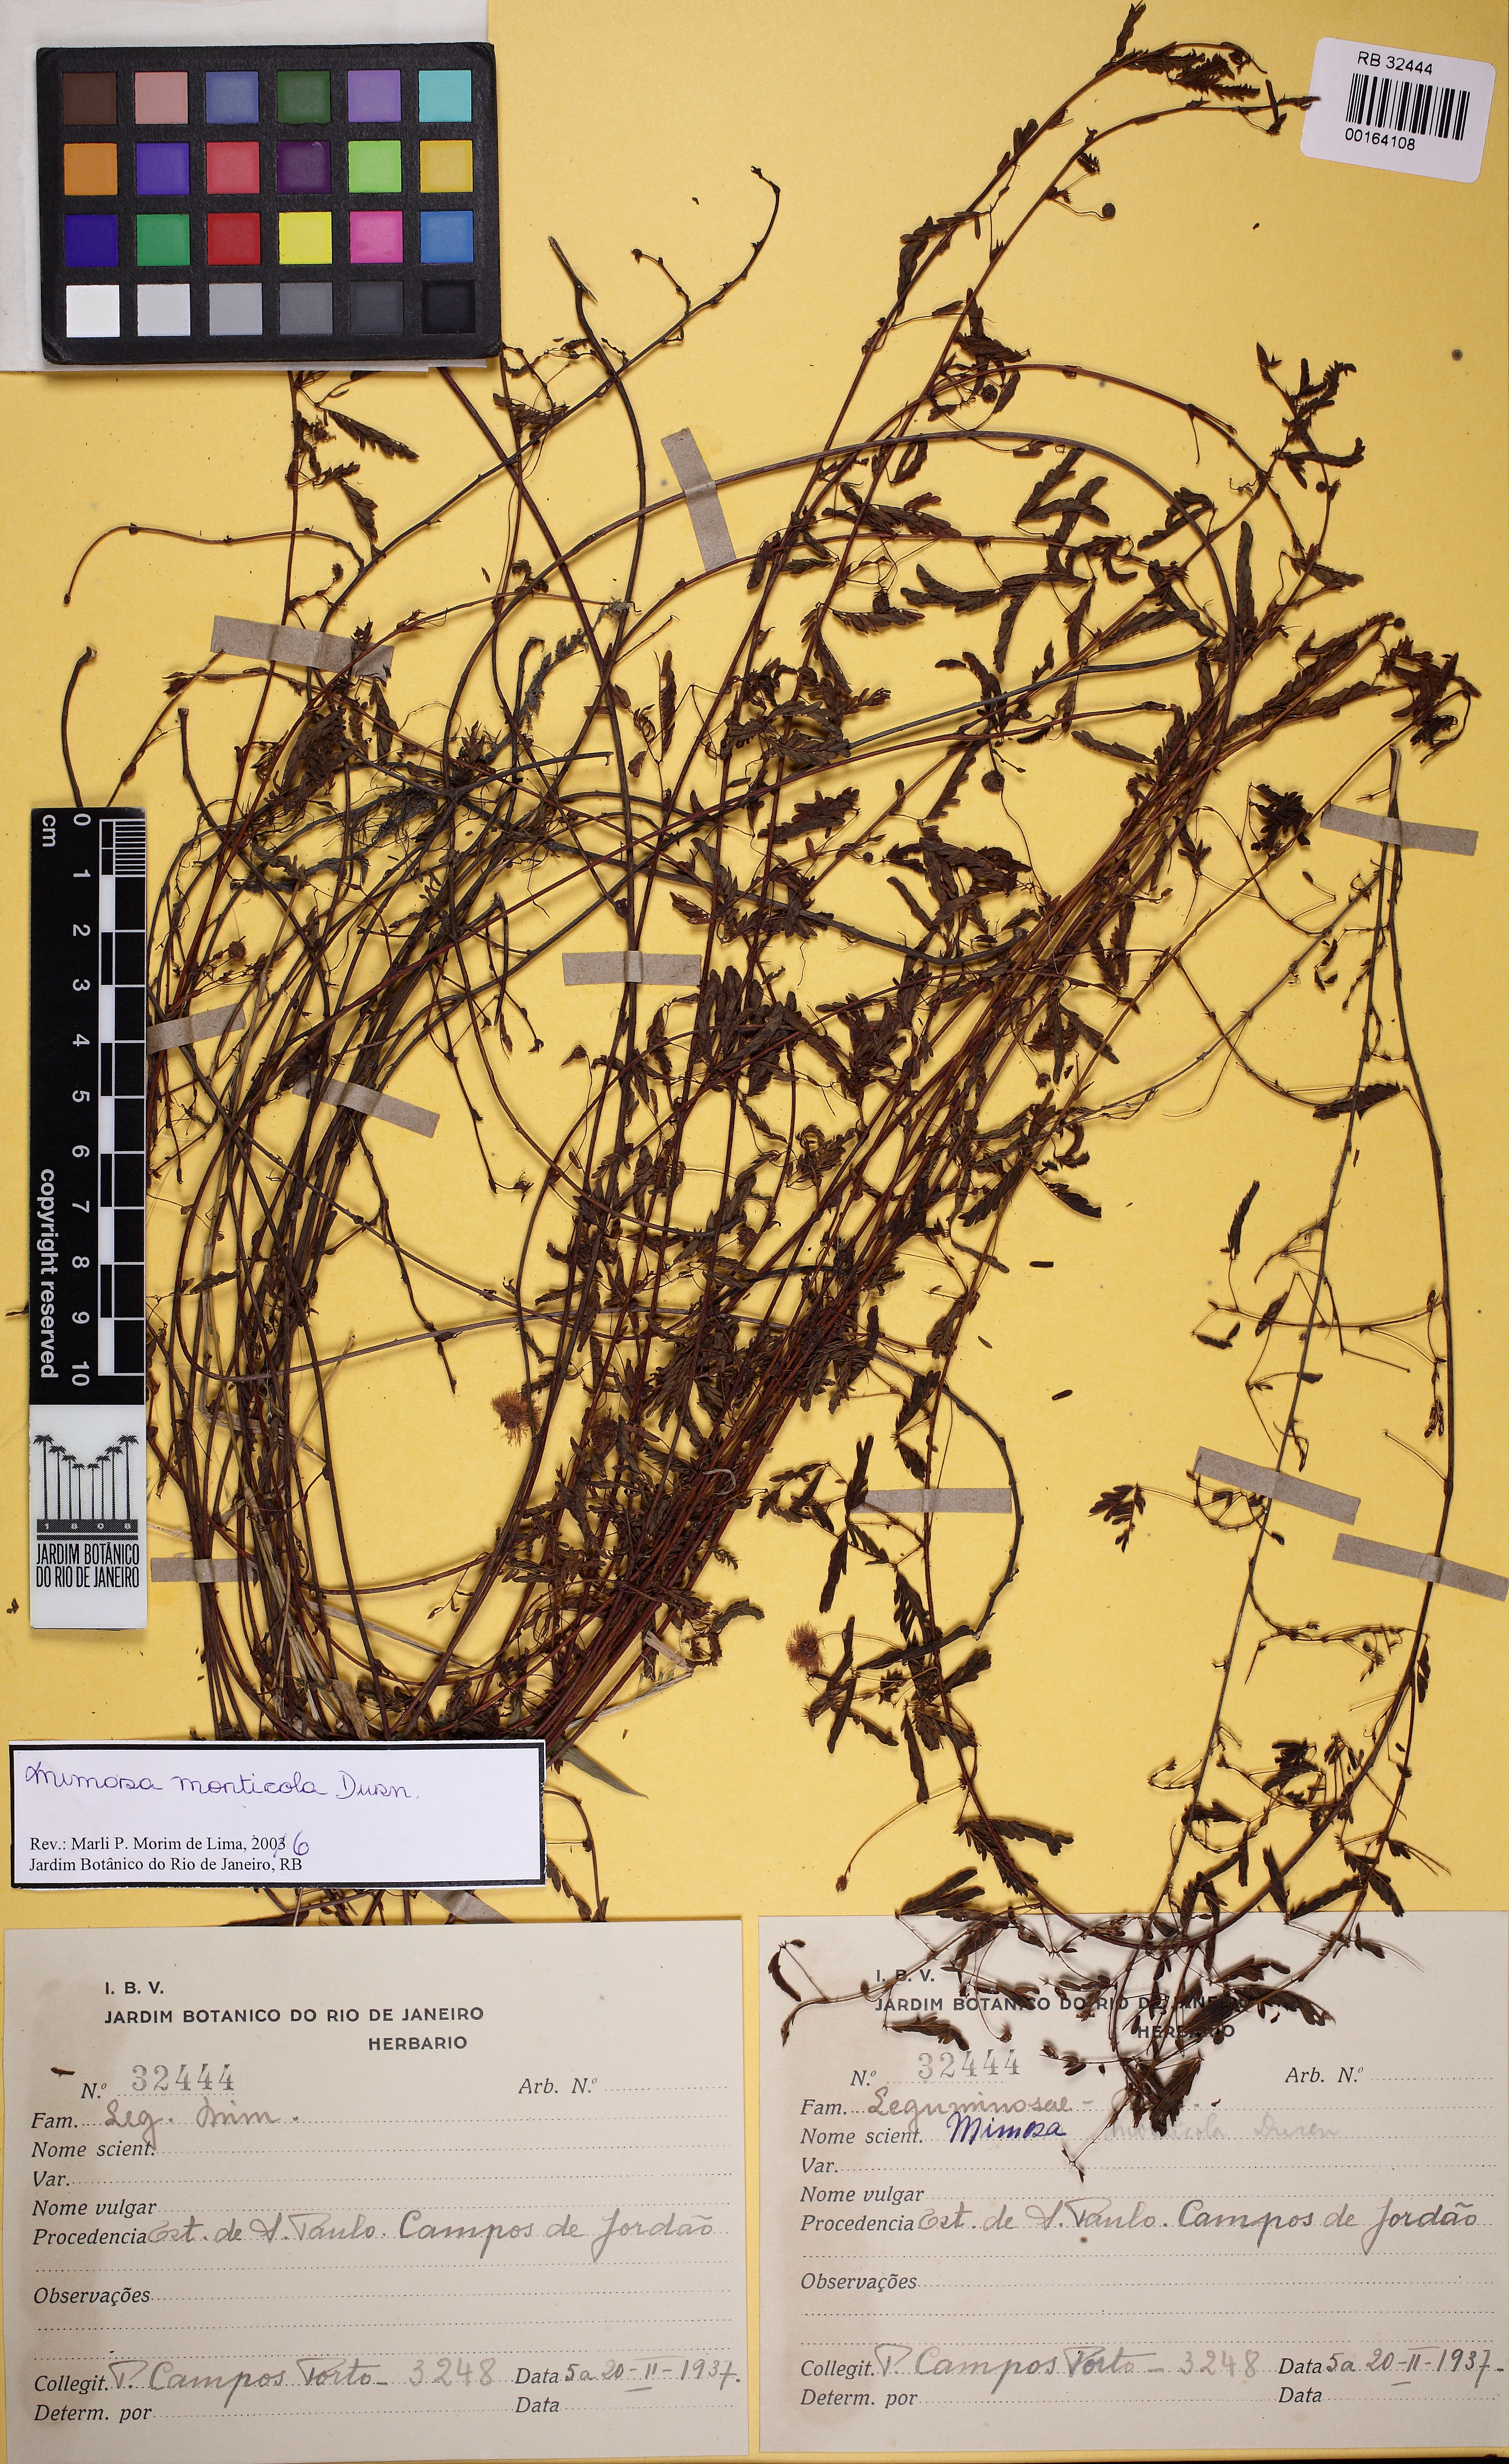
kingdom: Plantae
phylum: Tracheophyta
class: Magnoliopsida
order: Fabales
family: Fabaceae
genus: Mimosa
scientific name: Mimosa monticola
